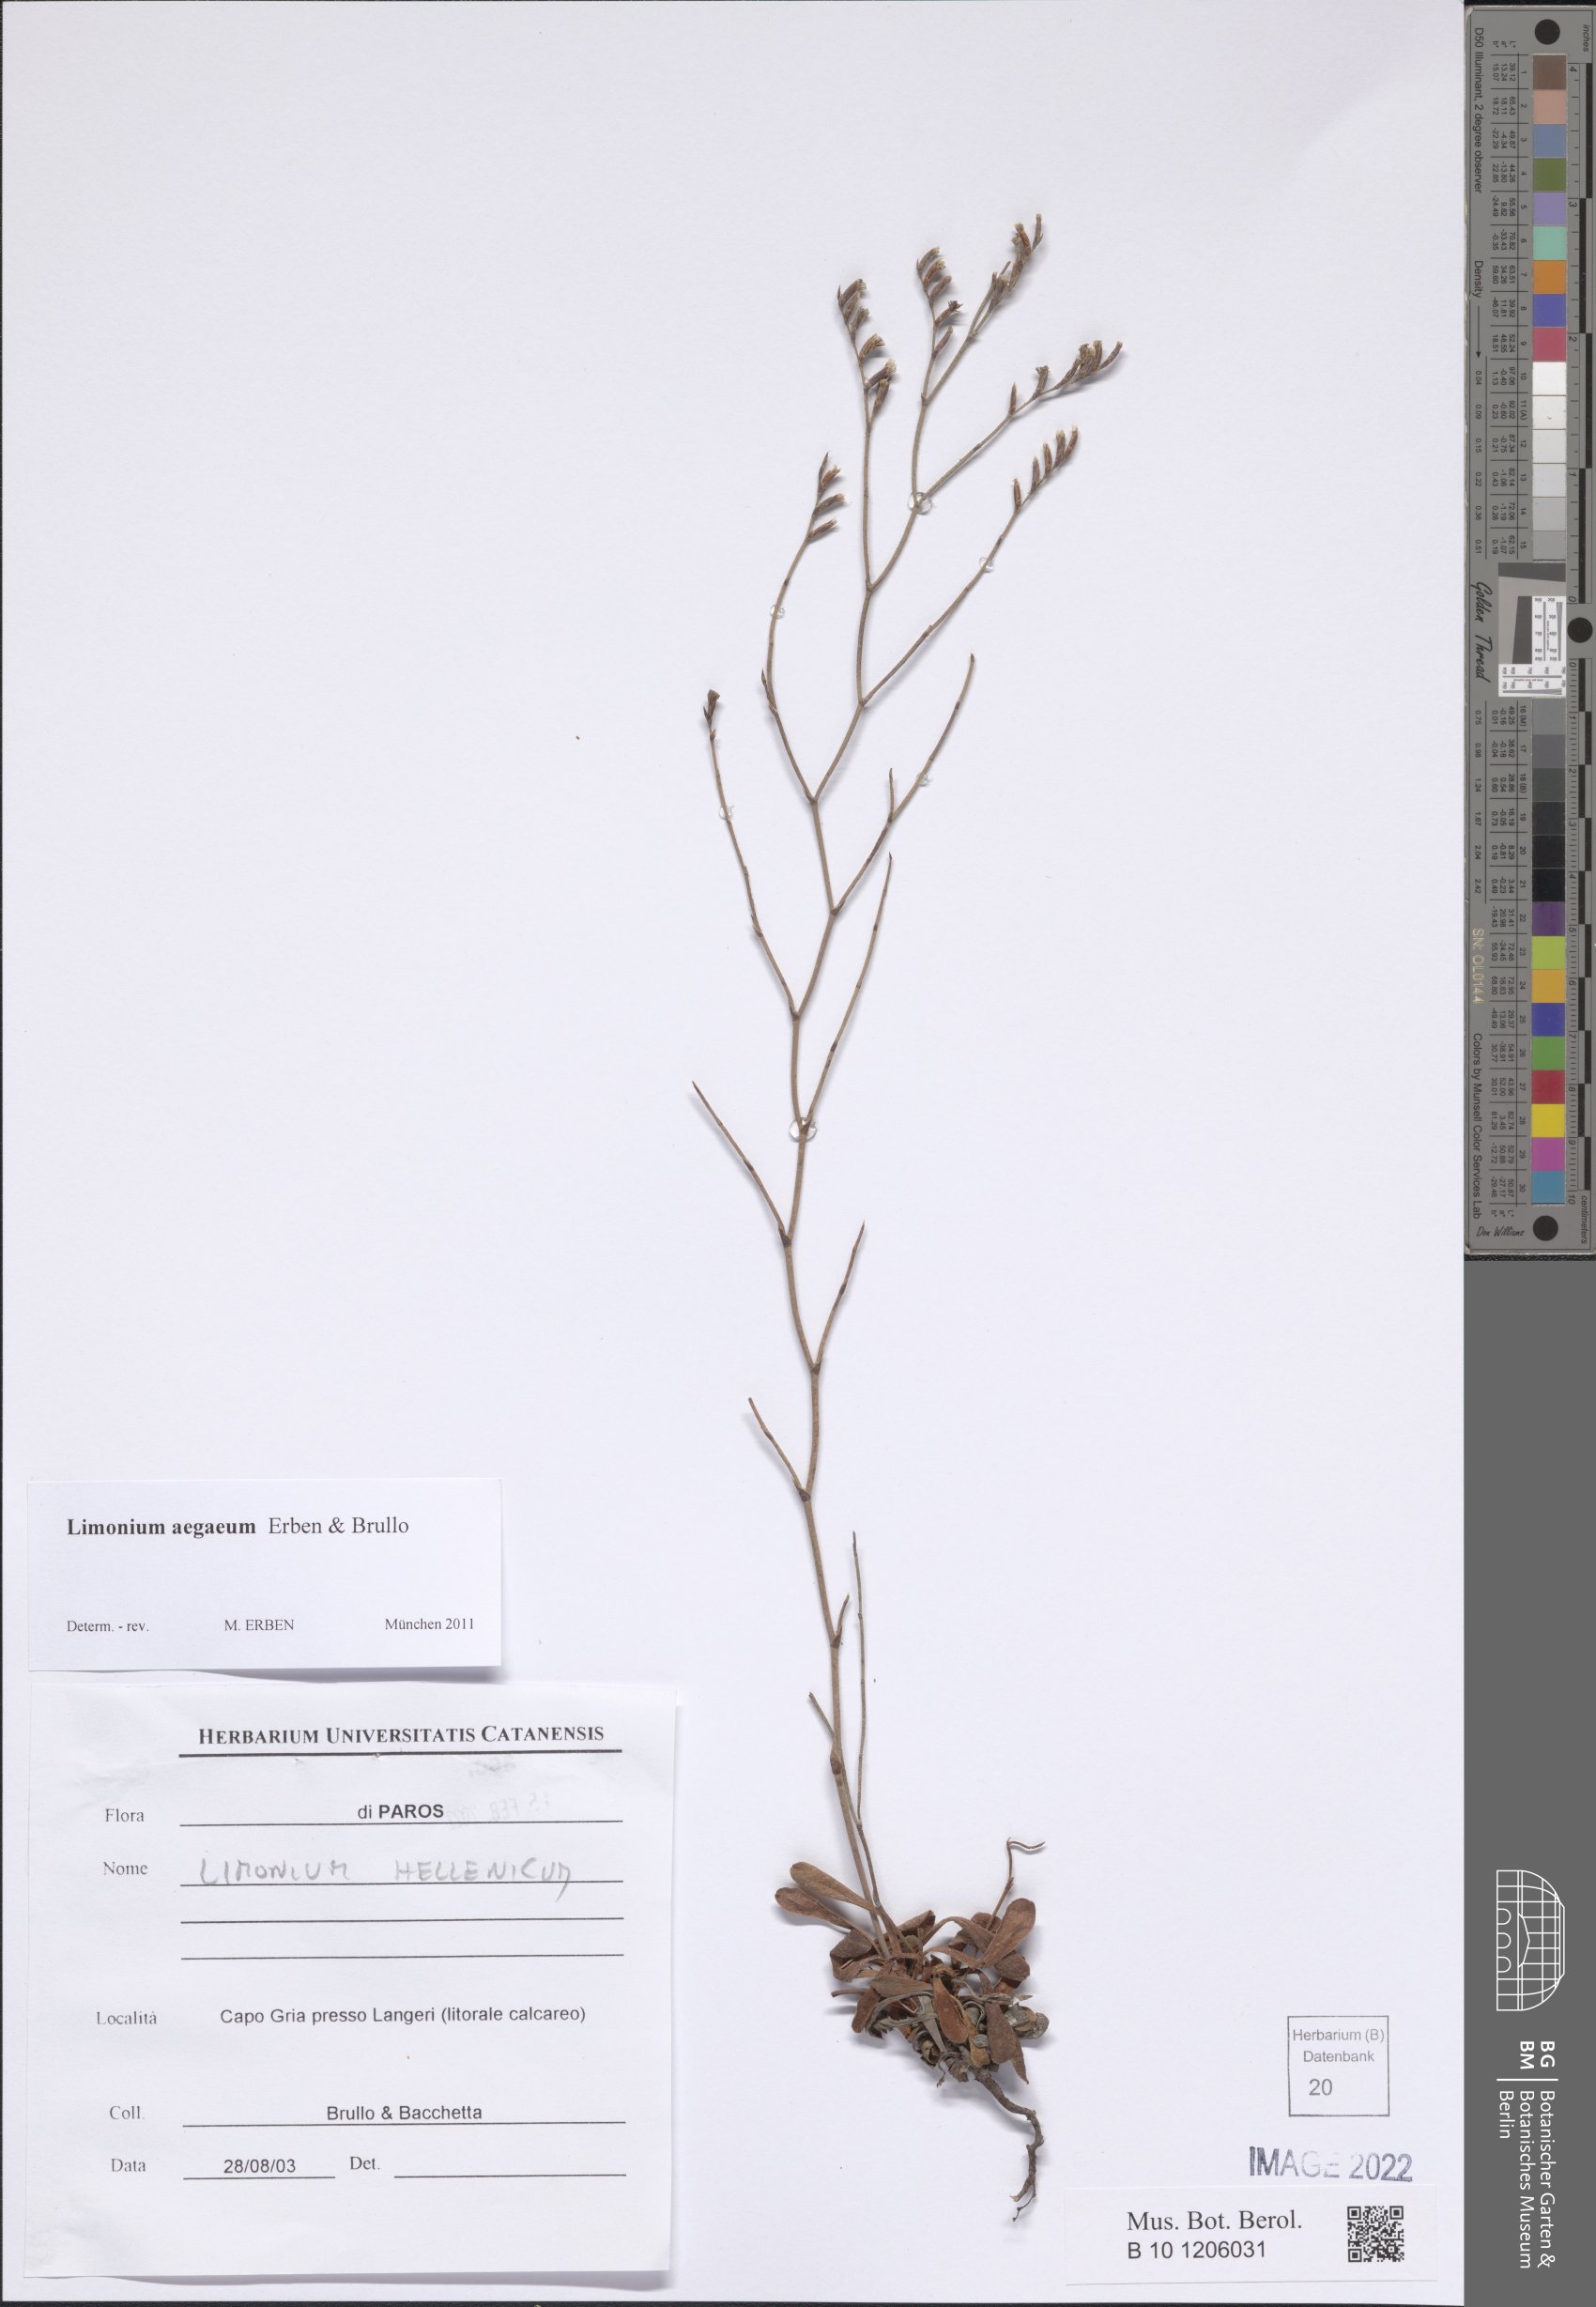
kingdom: Plantae
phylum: Tracheophyta
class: Magnoliopsida
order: Caryophyllales
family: Plumbaginaceae
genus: Limonium
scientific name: Limonium aegaeum
